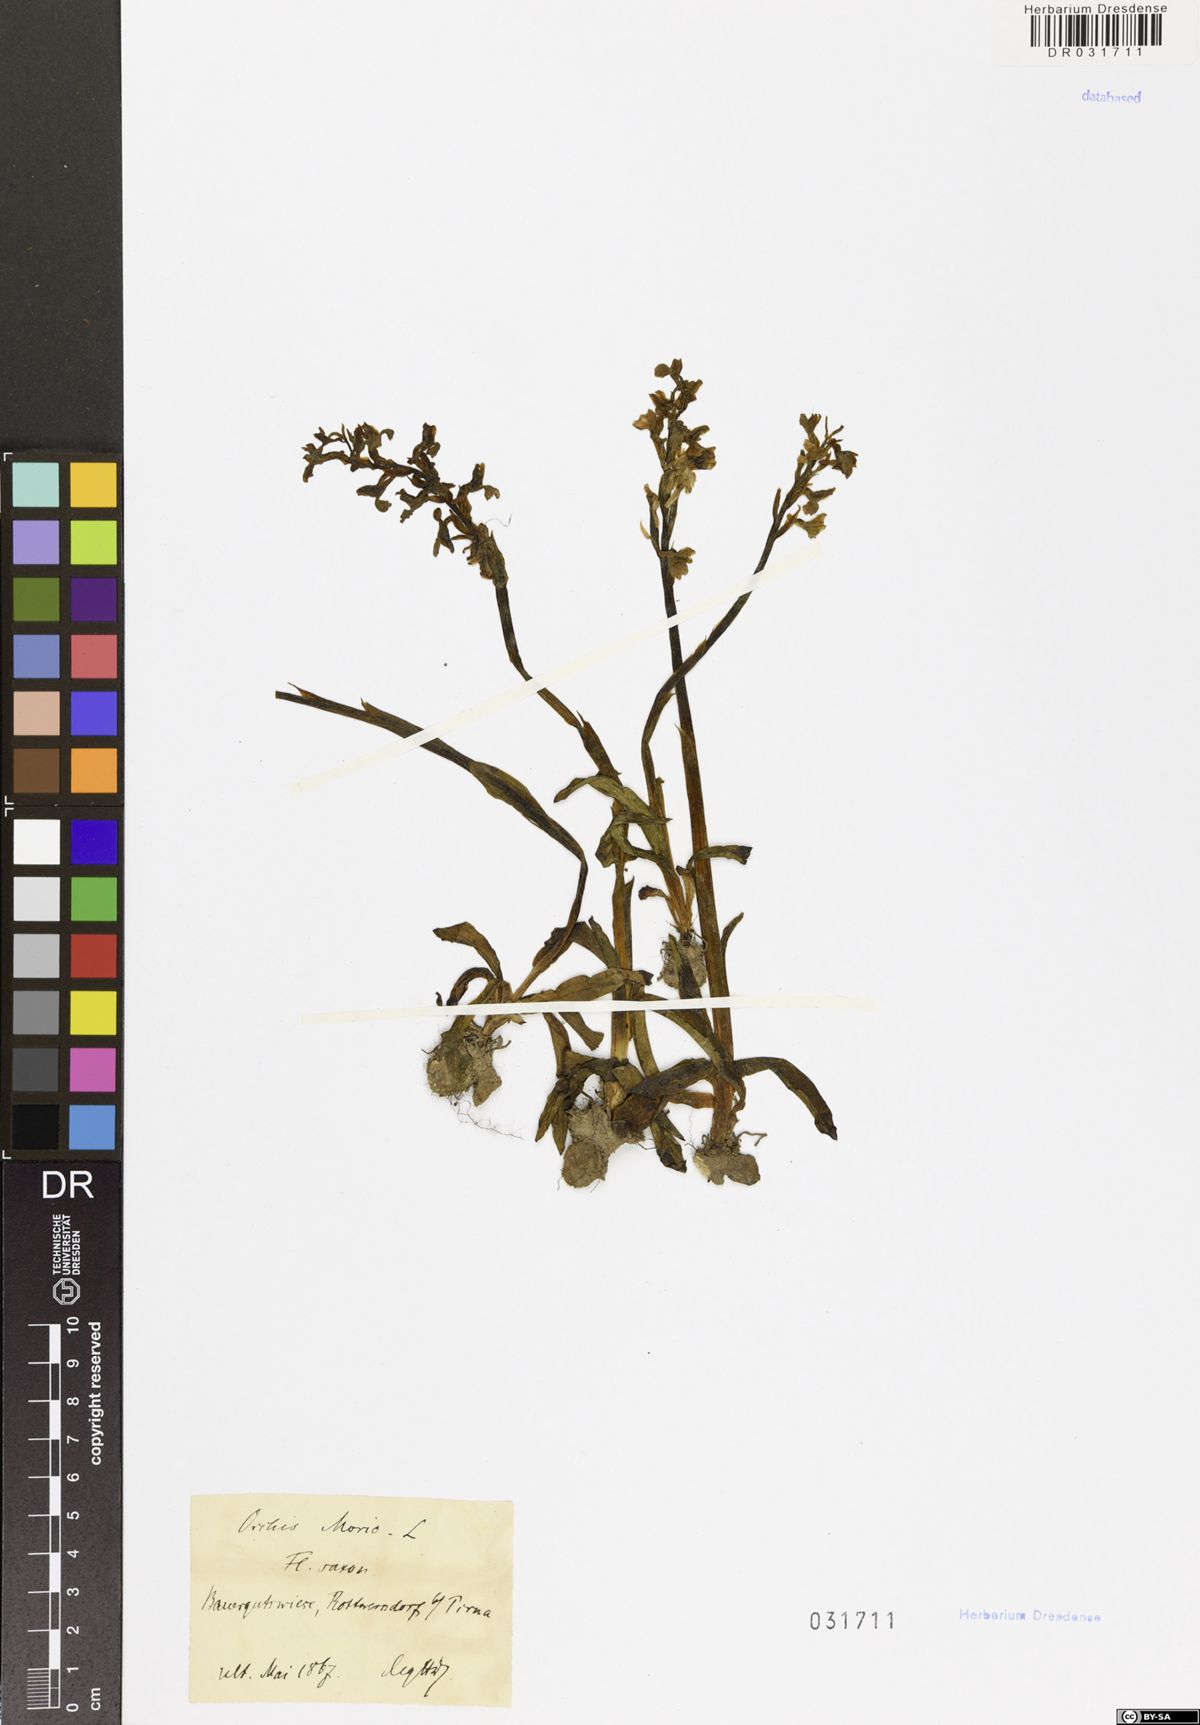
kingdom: Plantae
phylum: Tracheophyta
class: Liliopsida
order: Asparagales
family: Orchidaceae
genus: Anacamptis
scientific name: Anacamptis morio
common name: Green-winged orchid
